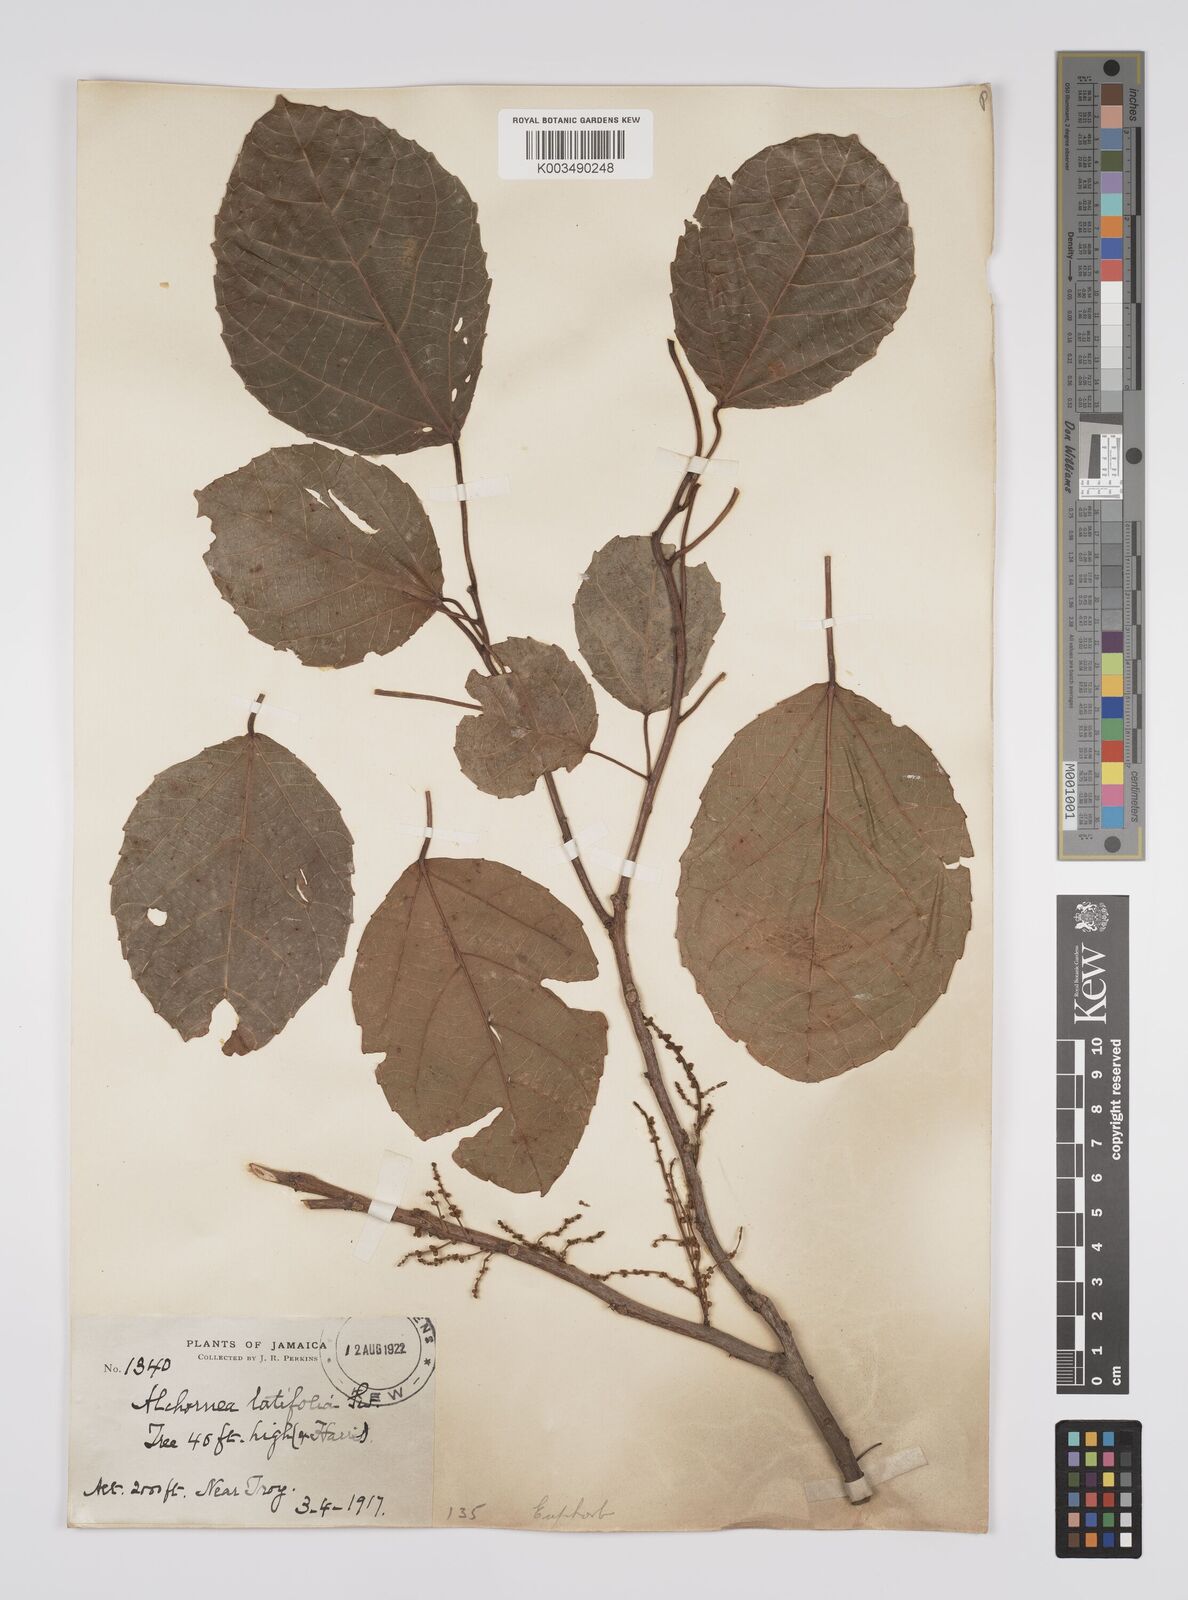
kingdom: Plantae
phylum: Tracheophyta
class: Magnoliopsida
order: Malpighiales
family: Euphorbiaceae
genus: Alchornea
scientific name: Alchornea latifolia
